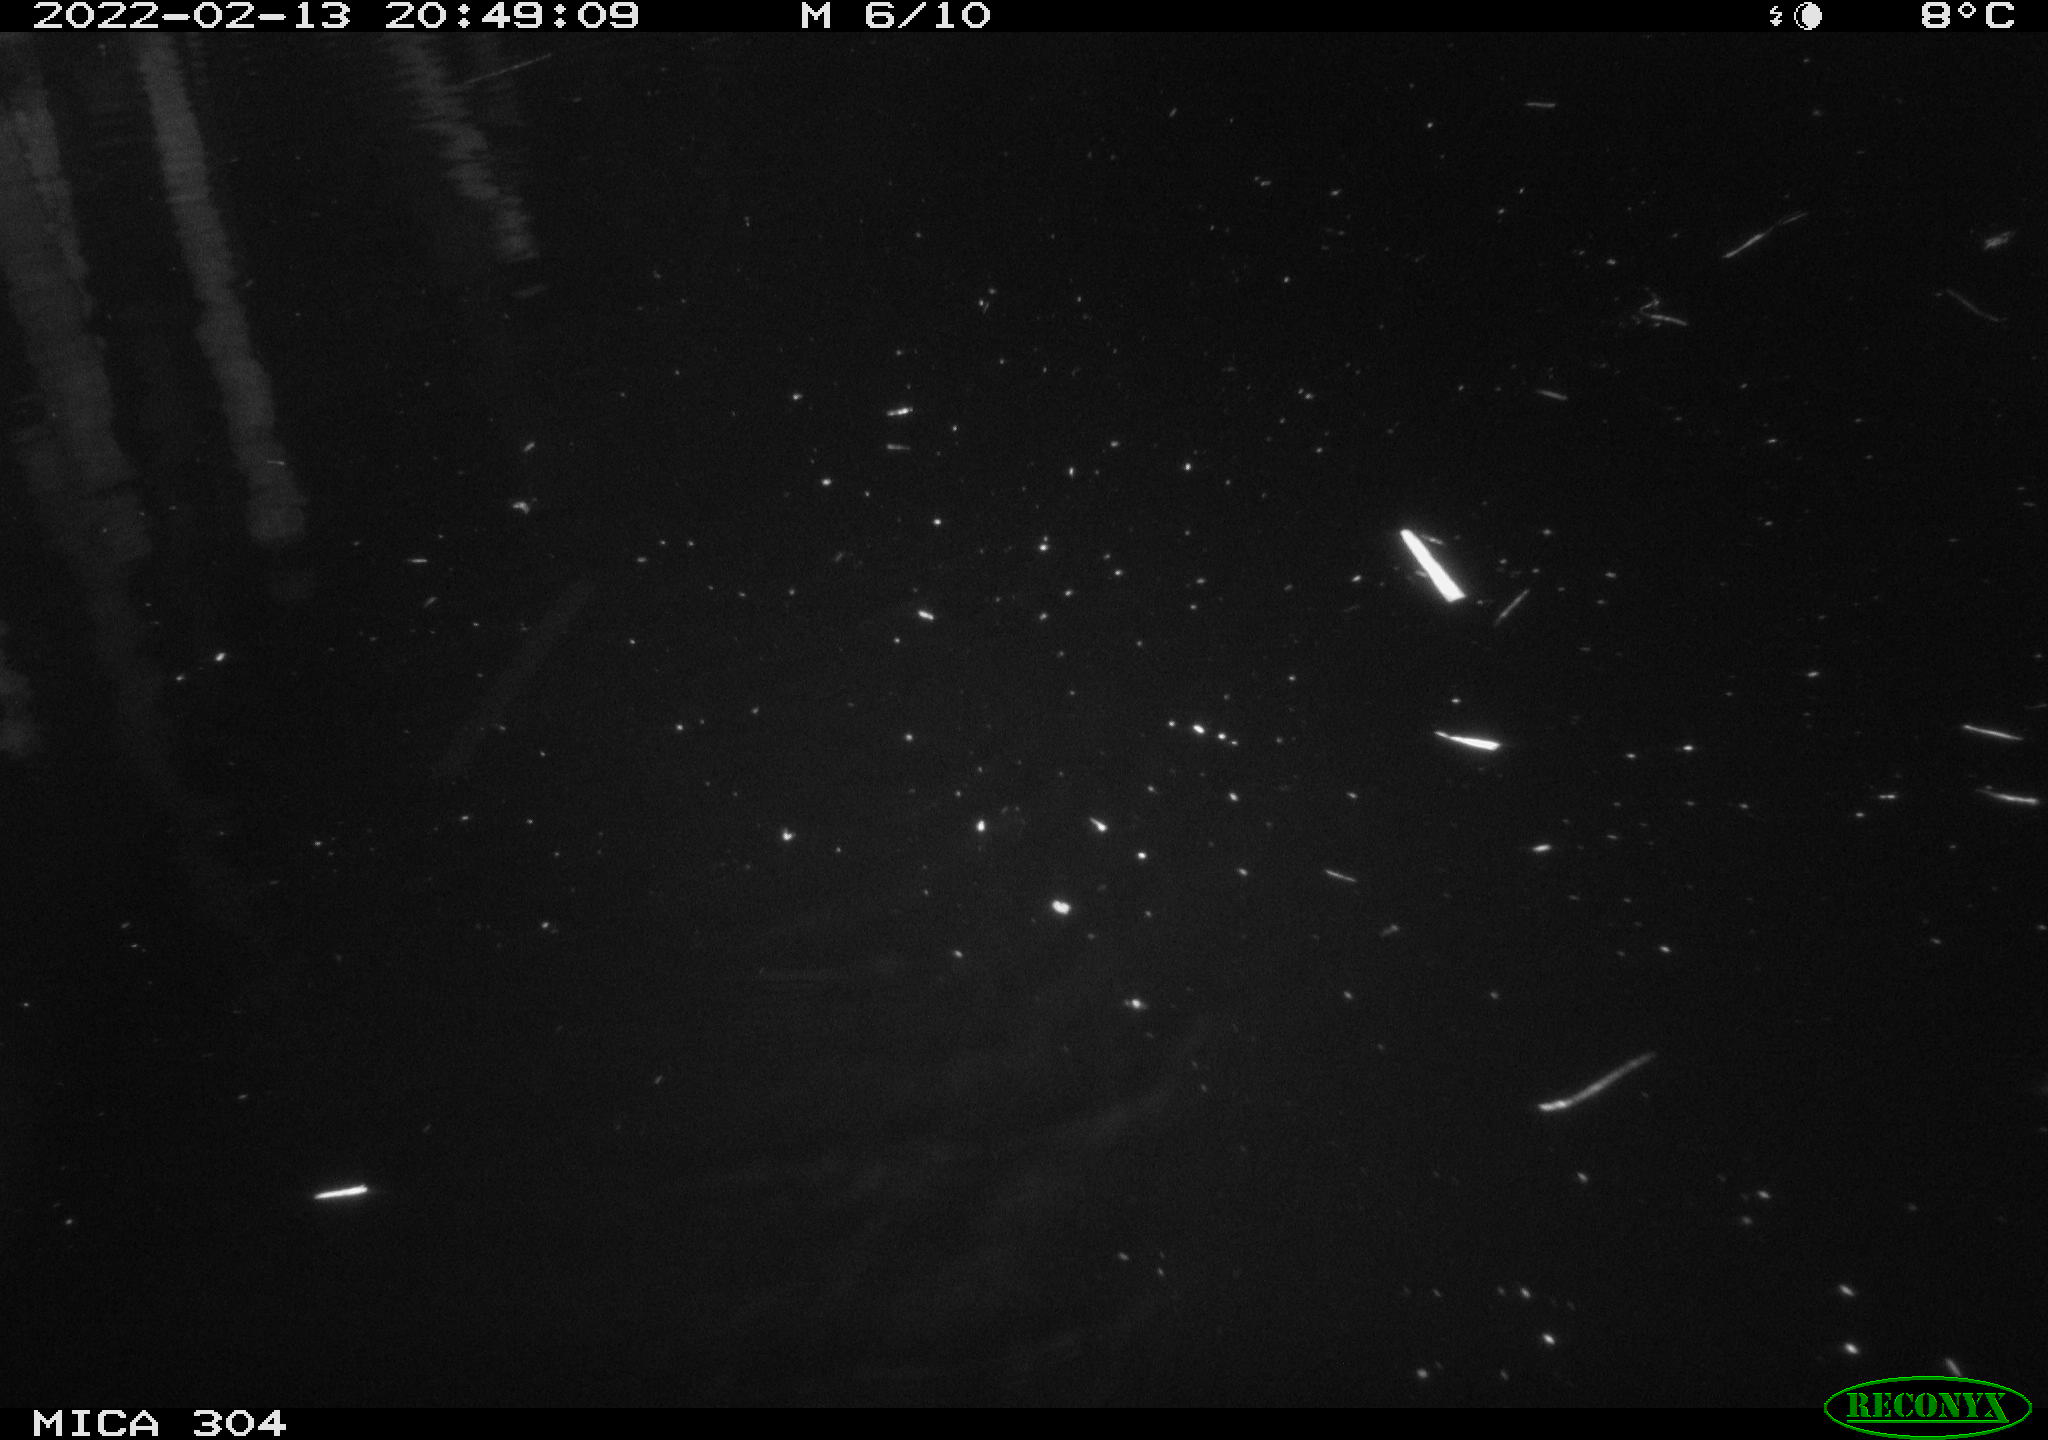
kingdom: Animalia
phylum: Chordata
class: Mammalia
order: Rodentia
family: Cricetidae
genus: Ondatra
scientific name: Ondatra zibethicus
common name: Muskrat
